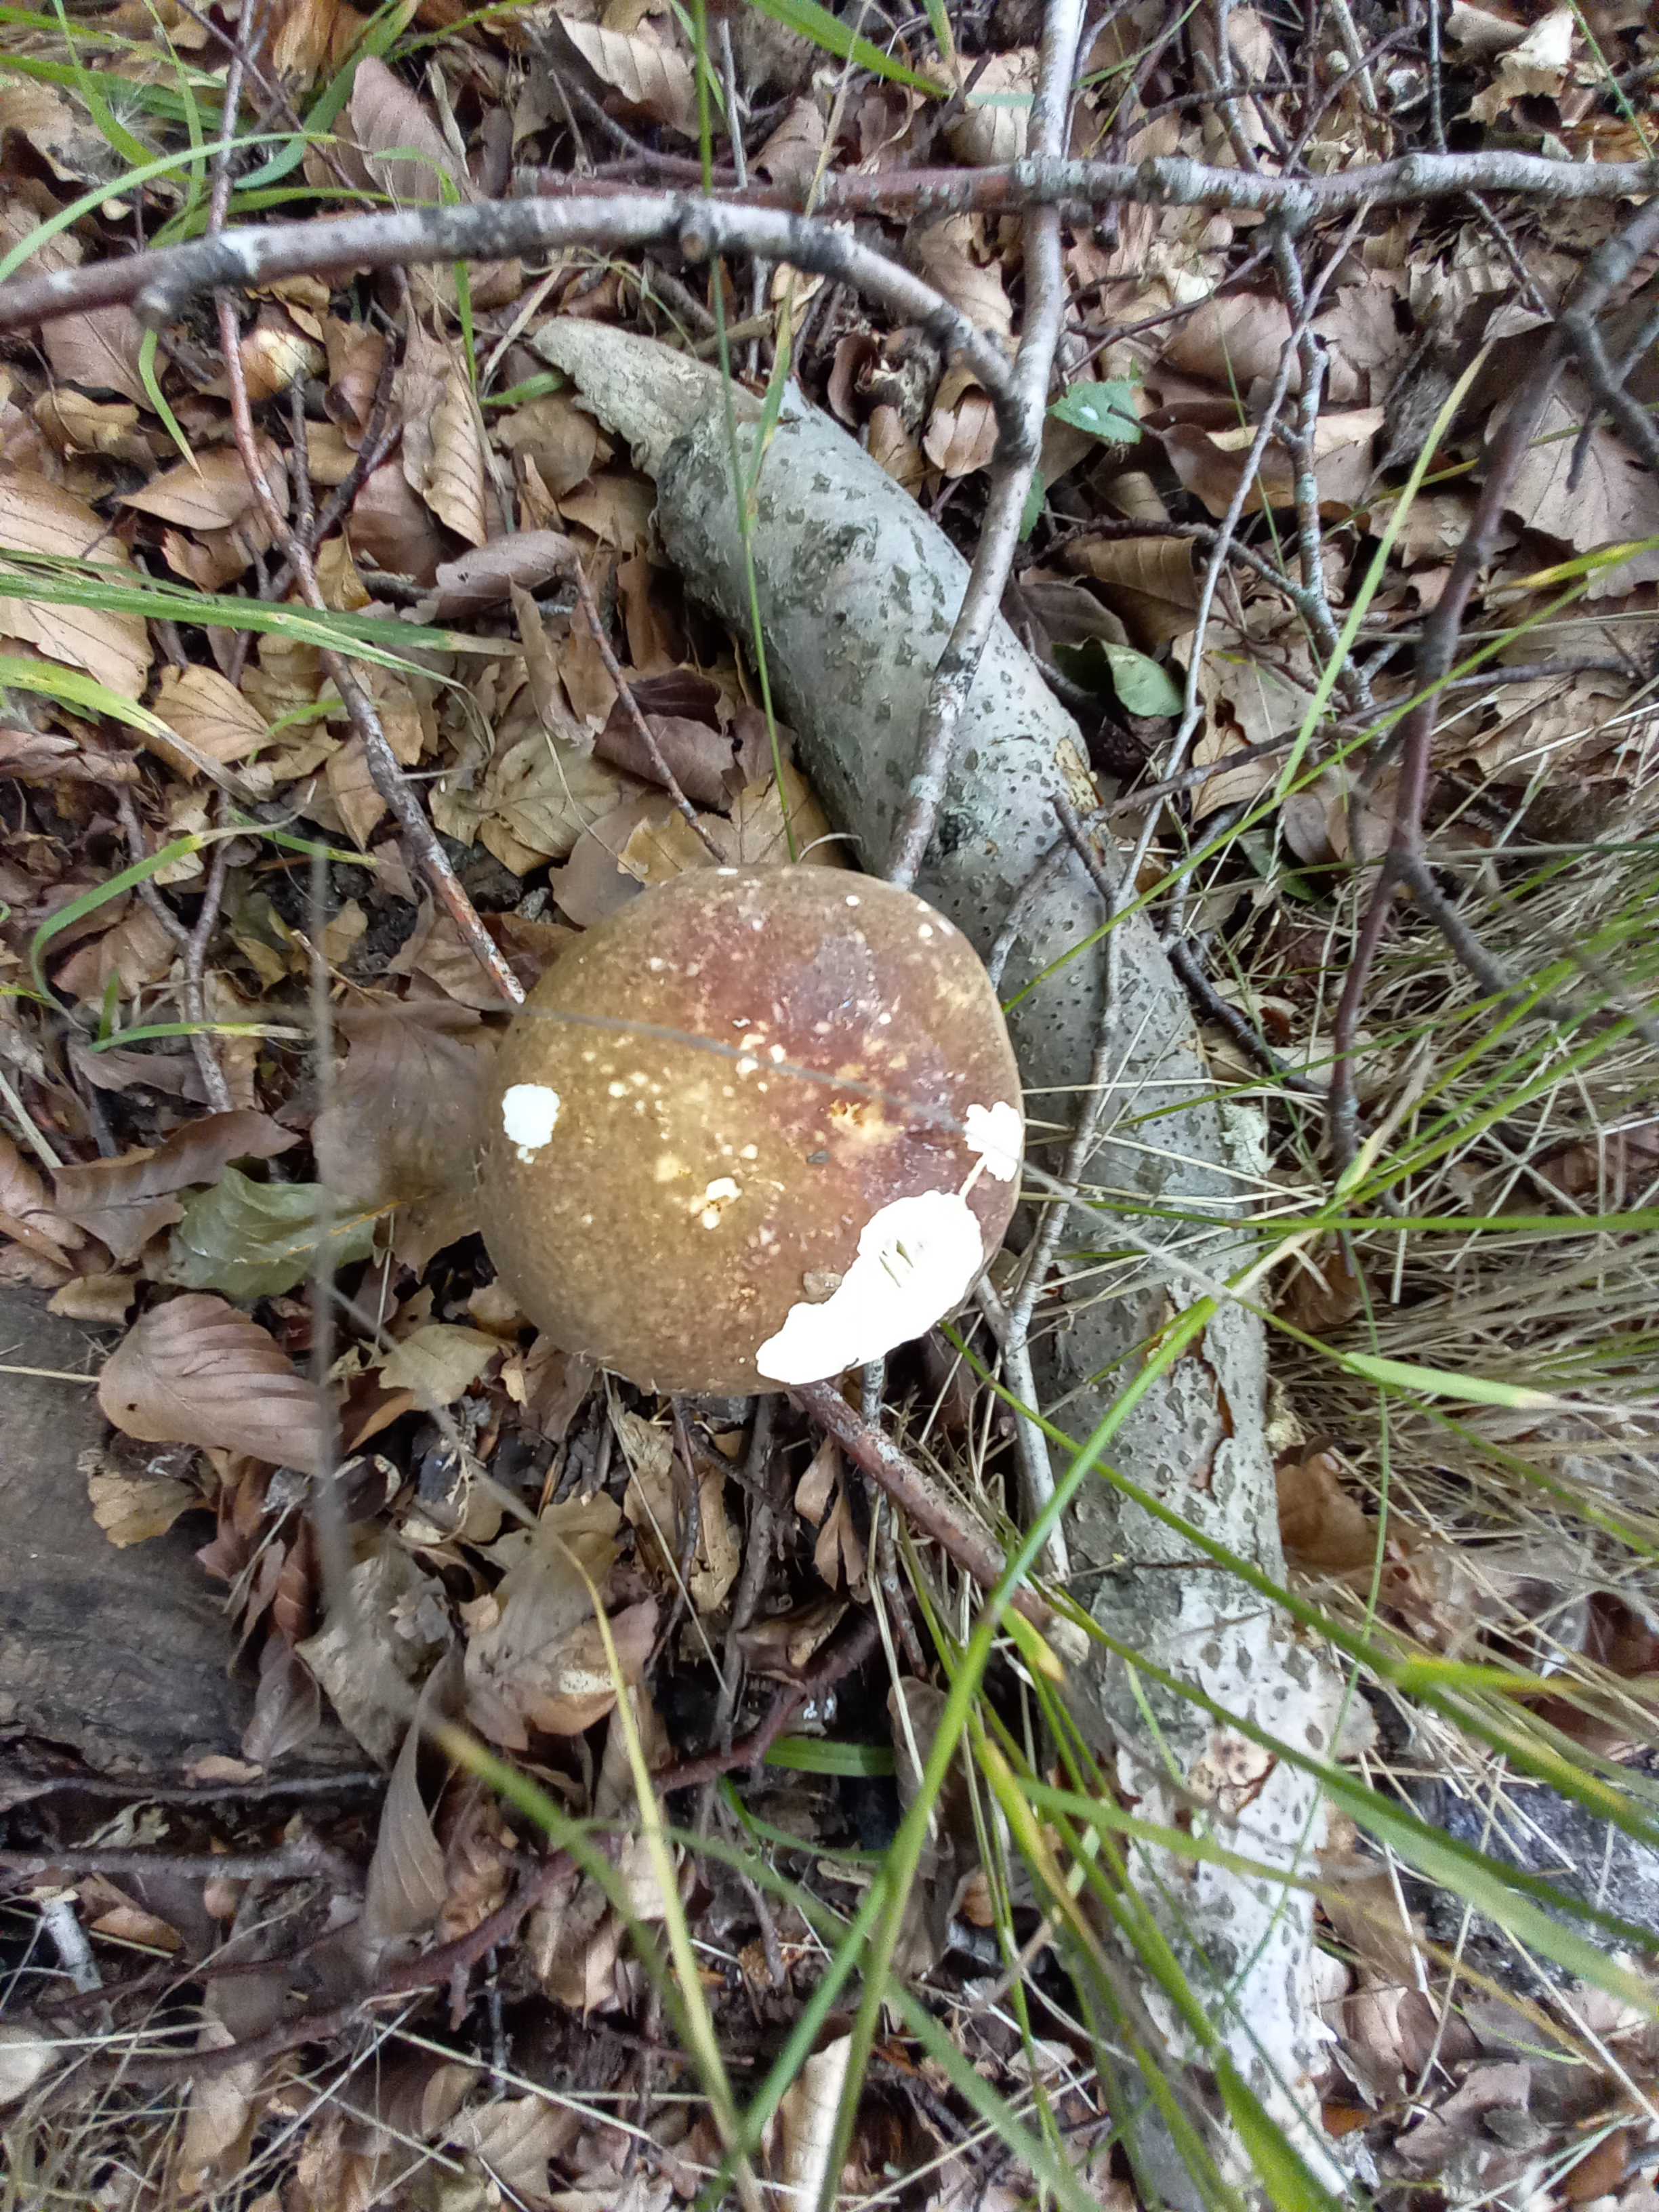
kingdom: Fungi
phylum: Basidiomycota
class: Agaricomycetes
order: Russulales
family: Russulaceae
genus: Russula
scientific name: Russula olivacea
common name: stor skørhat
